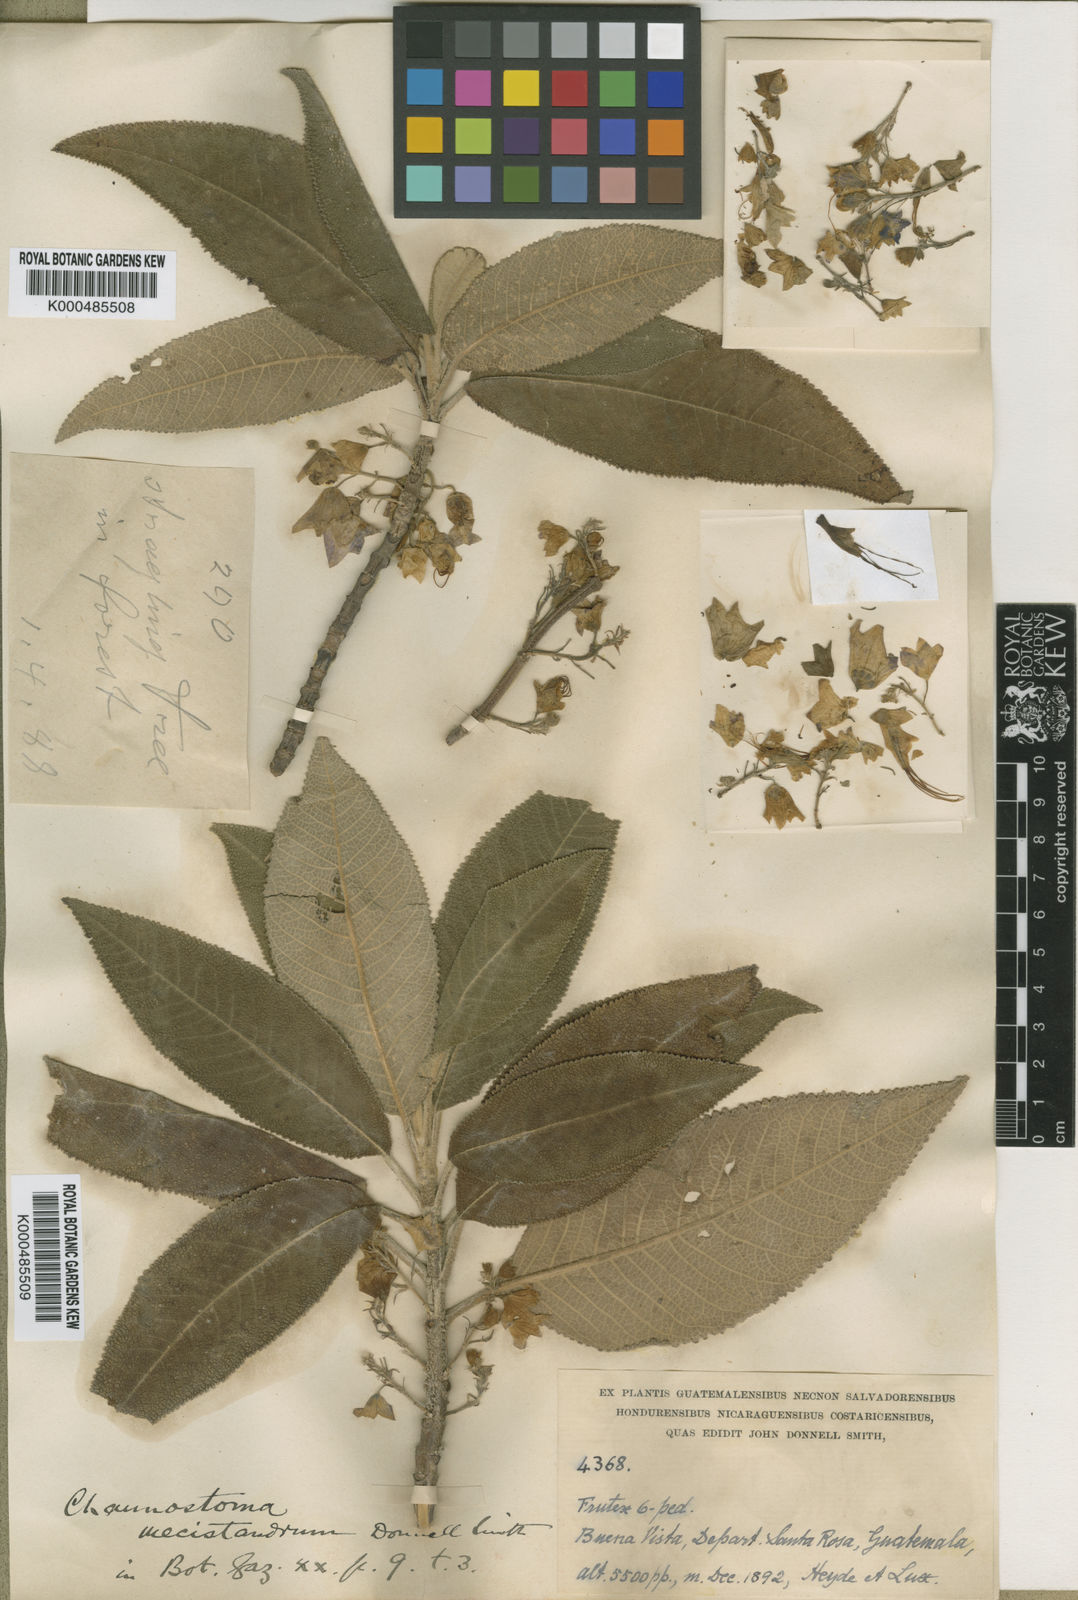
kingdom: Plantae
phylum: Tracheophyta
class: Magnoliopsida
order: Lamiales
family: Lamiaceae
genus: Lepechinia
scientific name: Lepechinia mecistandrum
